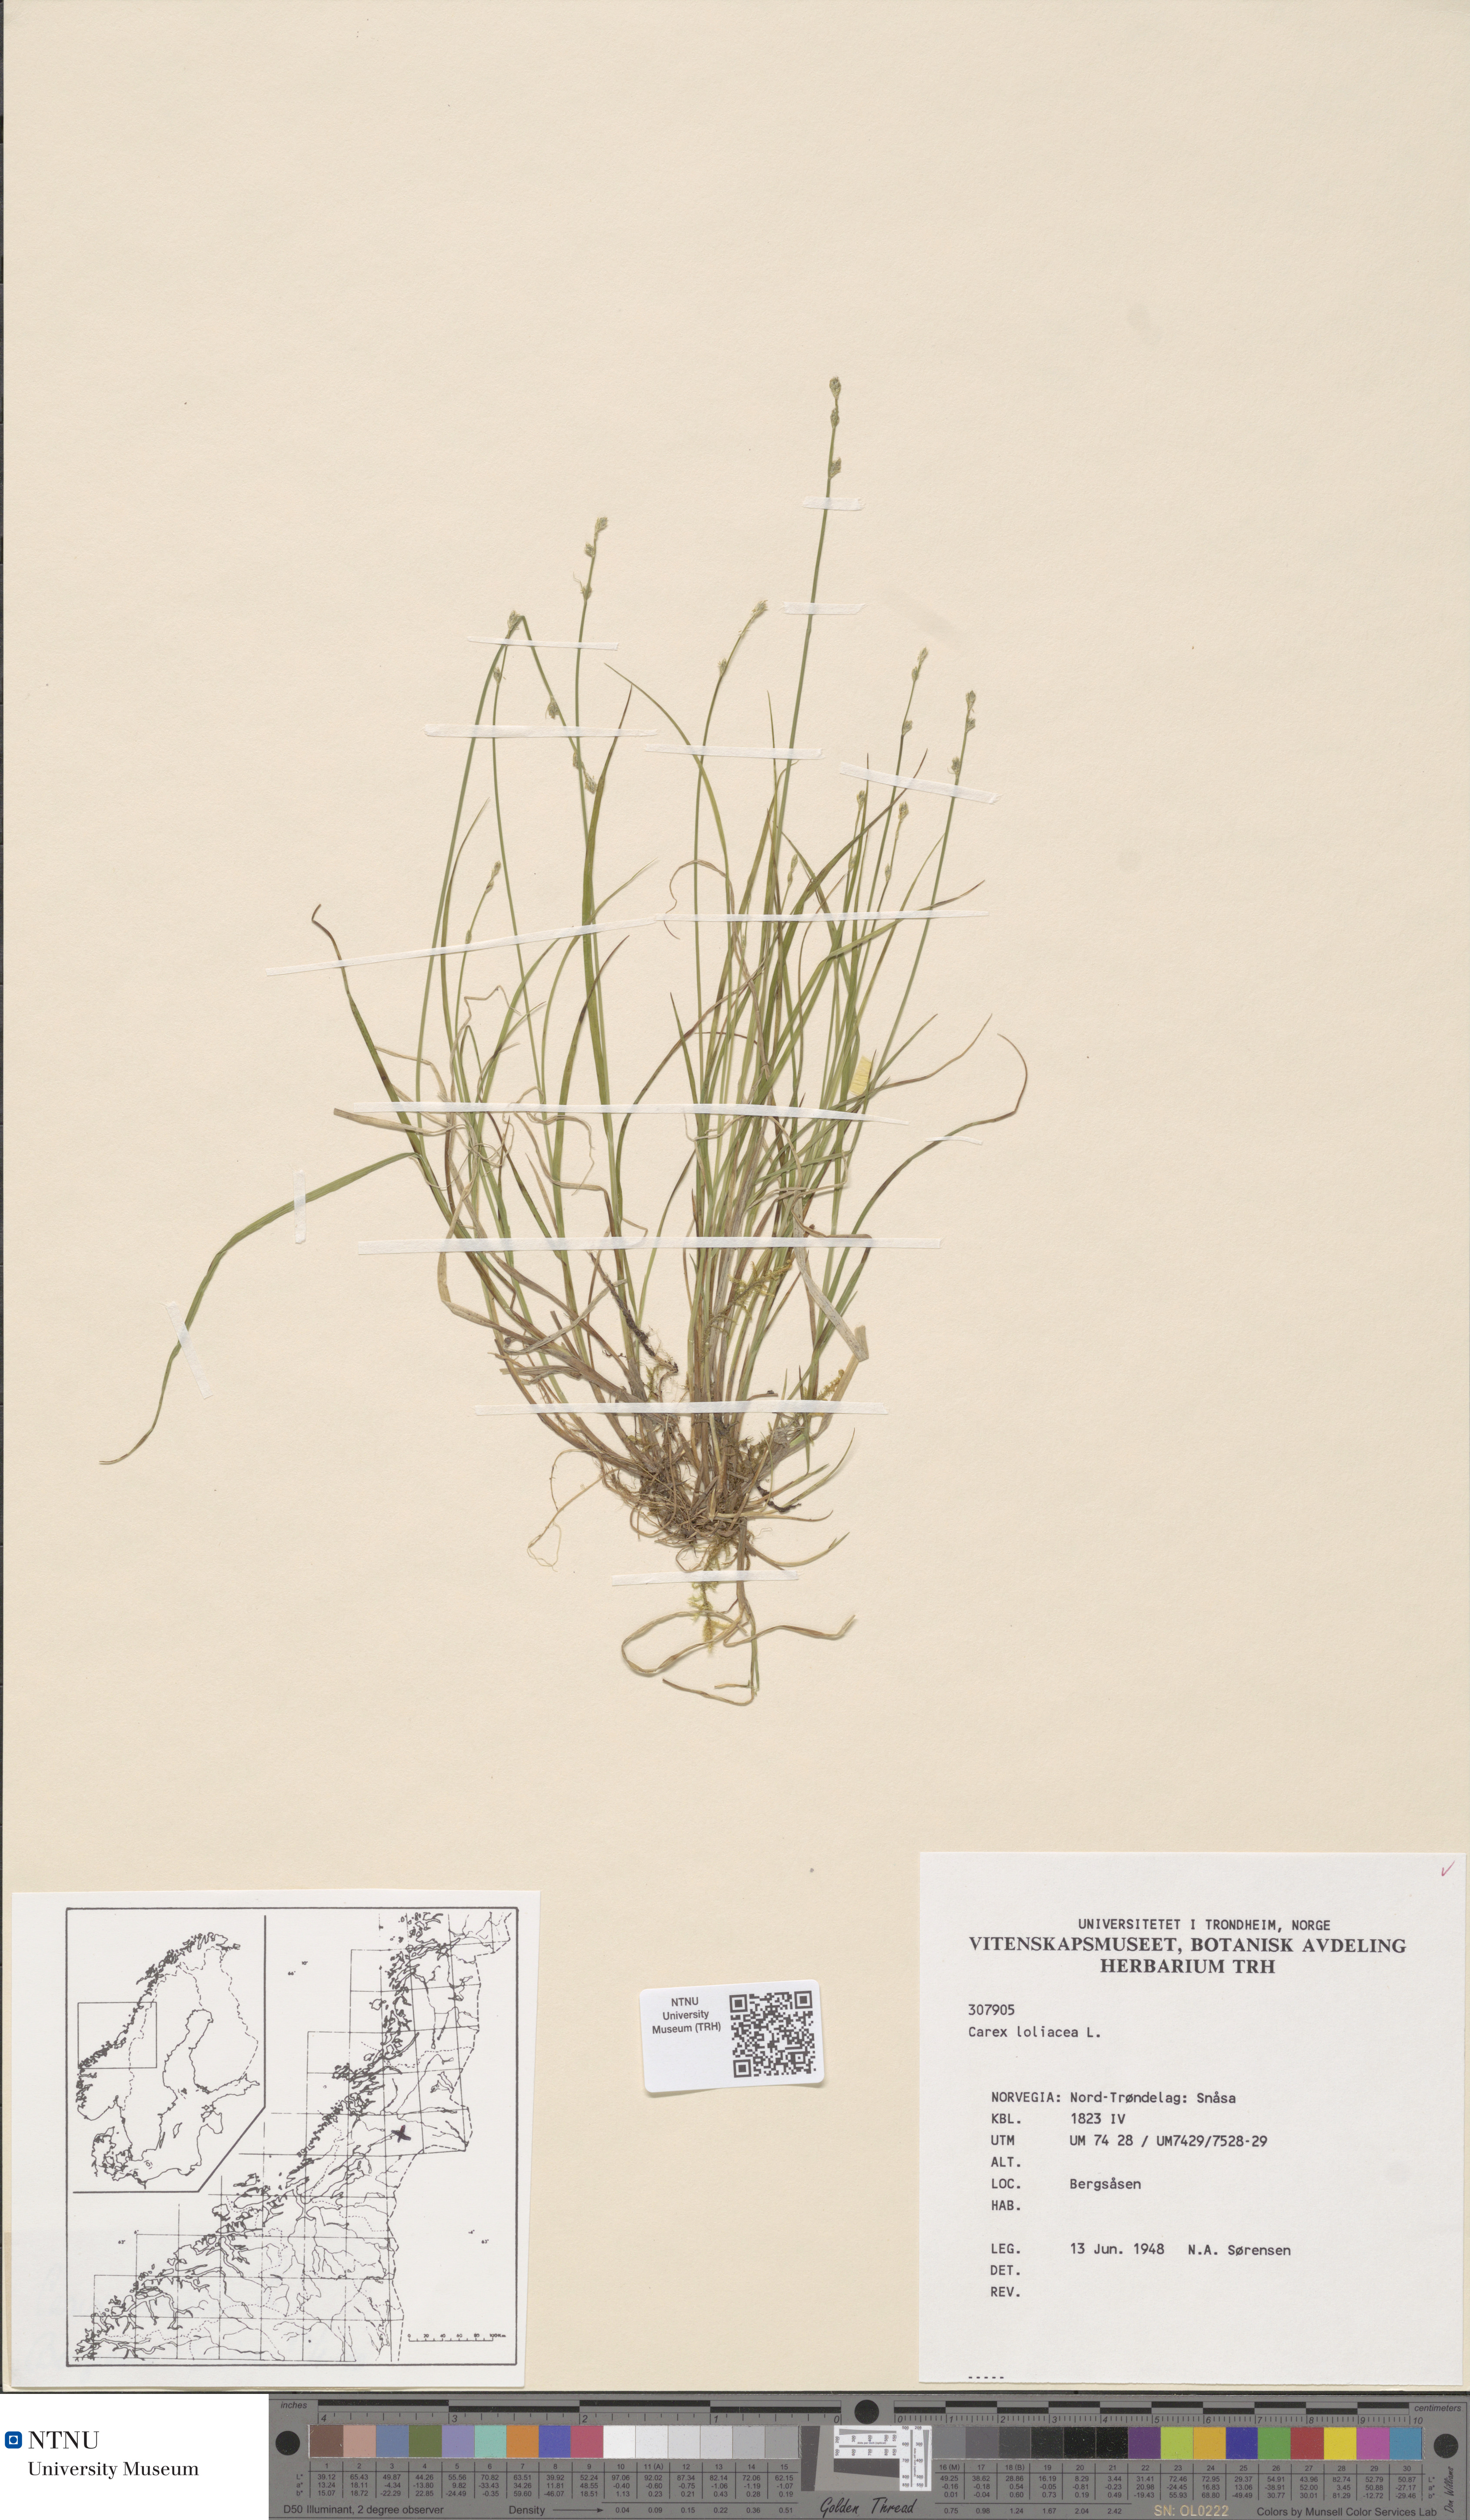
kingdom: Plantae
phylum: Tracheophyta
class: Liliopsida
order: Poales
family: Cyperaceae
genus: Carex
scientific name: Carex loliacea
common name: Ryegrass sedge
